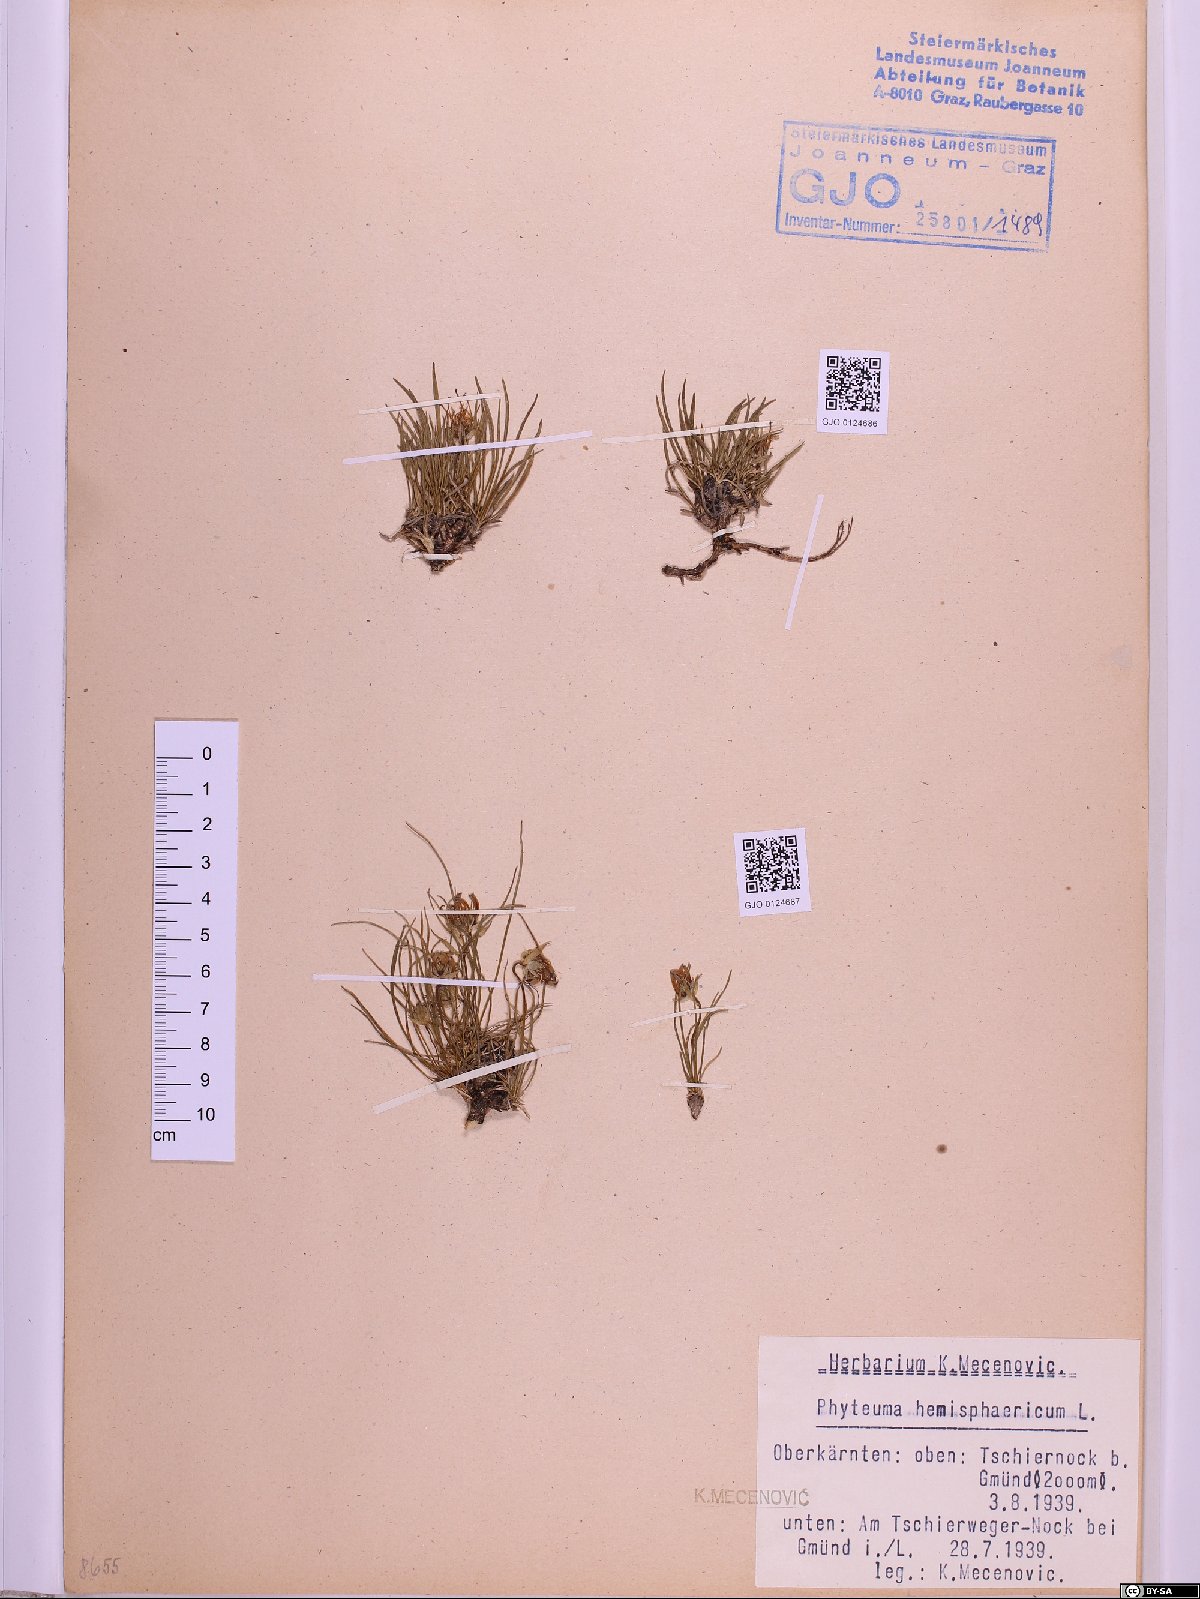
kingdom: Plantae
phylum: Tracheophyta
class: Magnoliopsida
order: Asterales
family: Campanulaceae
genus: Phyteuma
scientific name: Phyteuma hemisphaericum
